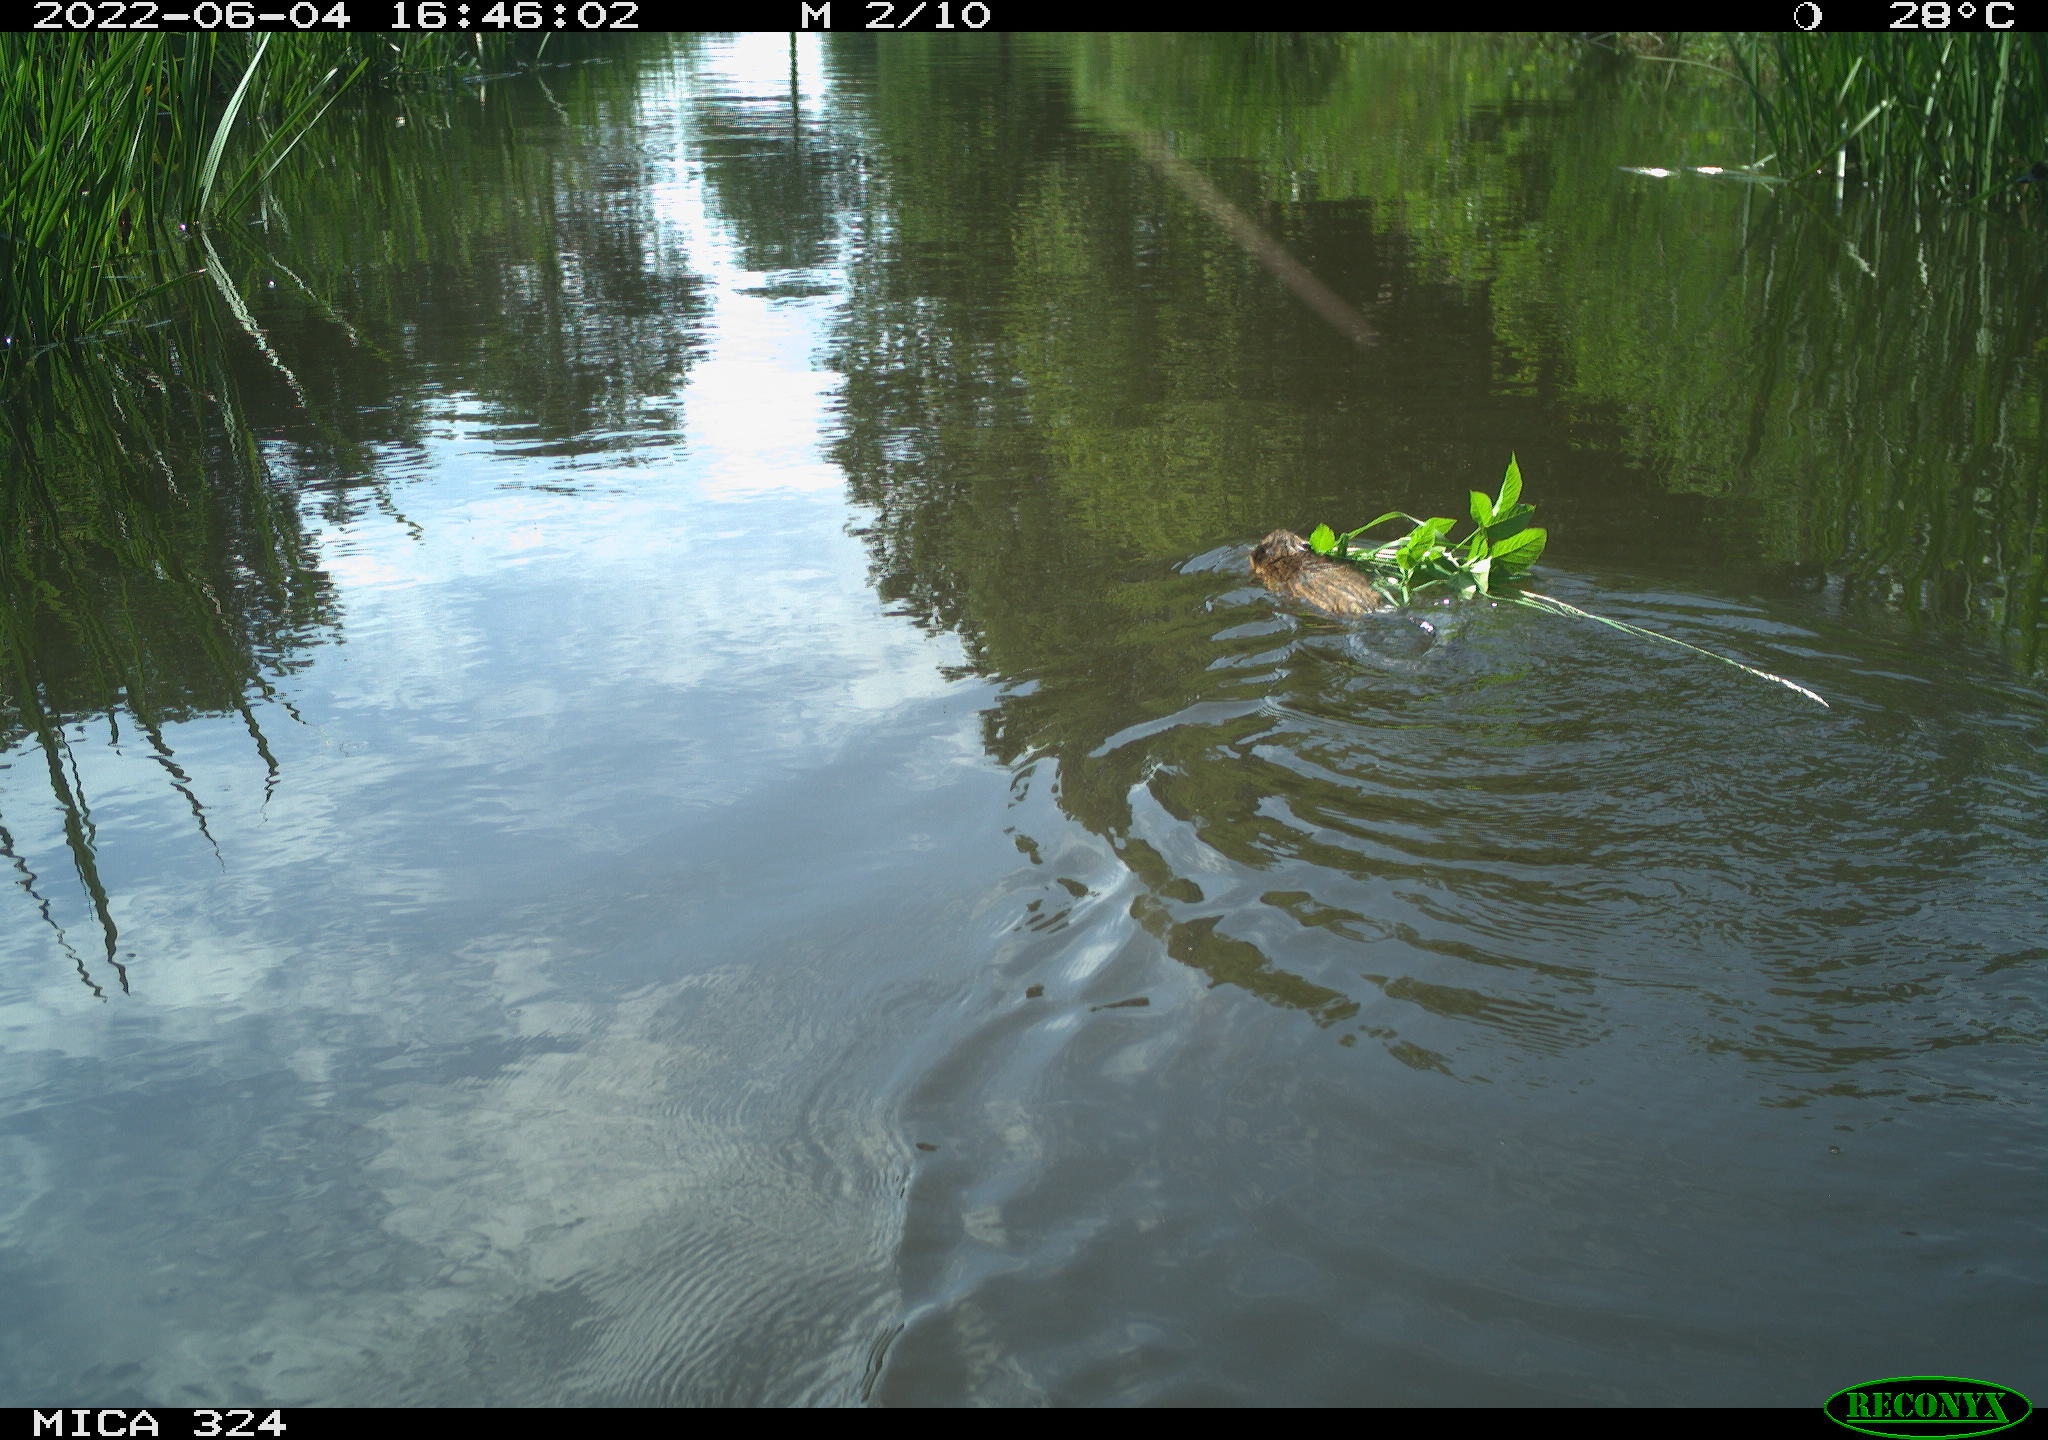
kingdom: Animalia
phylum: Chordata
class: Mammalia
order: Rodentia
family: Cricetidae
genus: Ondatra
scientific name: Ondatra zibethicus
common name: Muskrat
